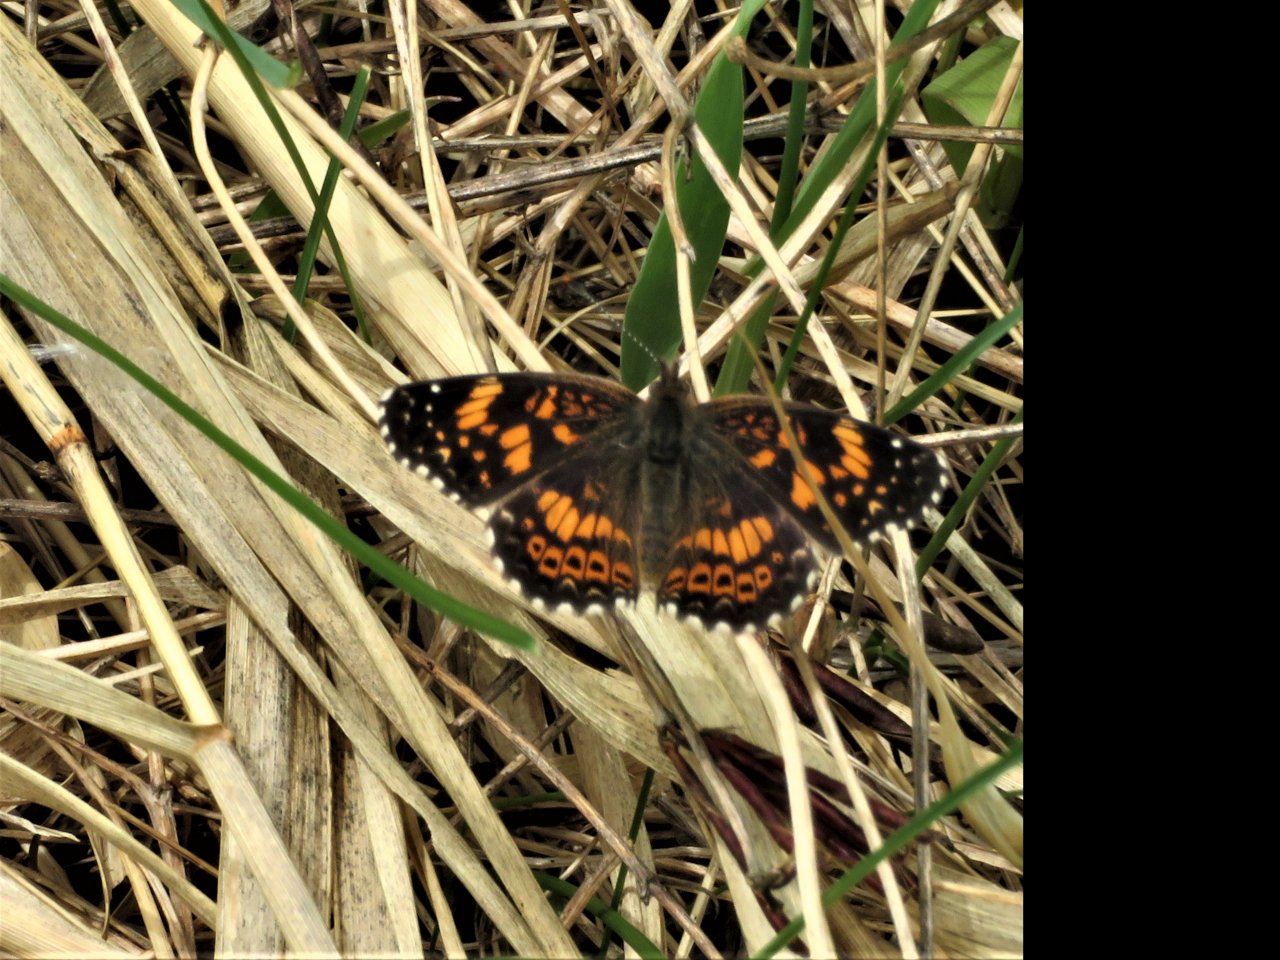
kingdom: Animalia
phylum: Arthropoda
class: Insecta
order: Lepidoptera
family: Nymphalidae
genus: Chlosyne
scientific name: Chlosyne gorgone
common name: Gorgone Checkerspot
